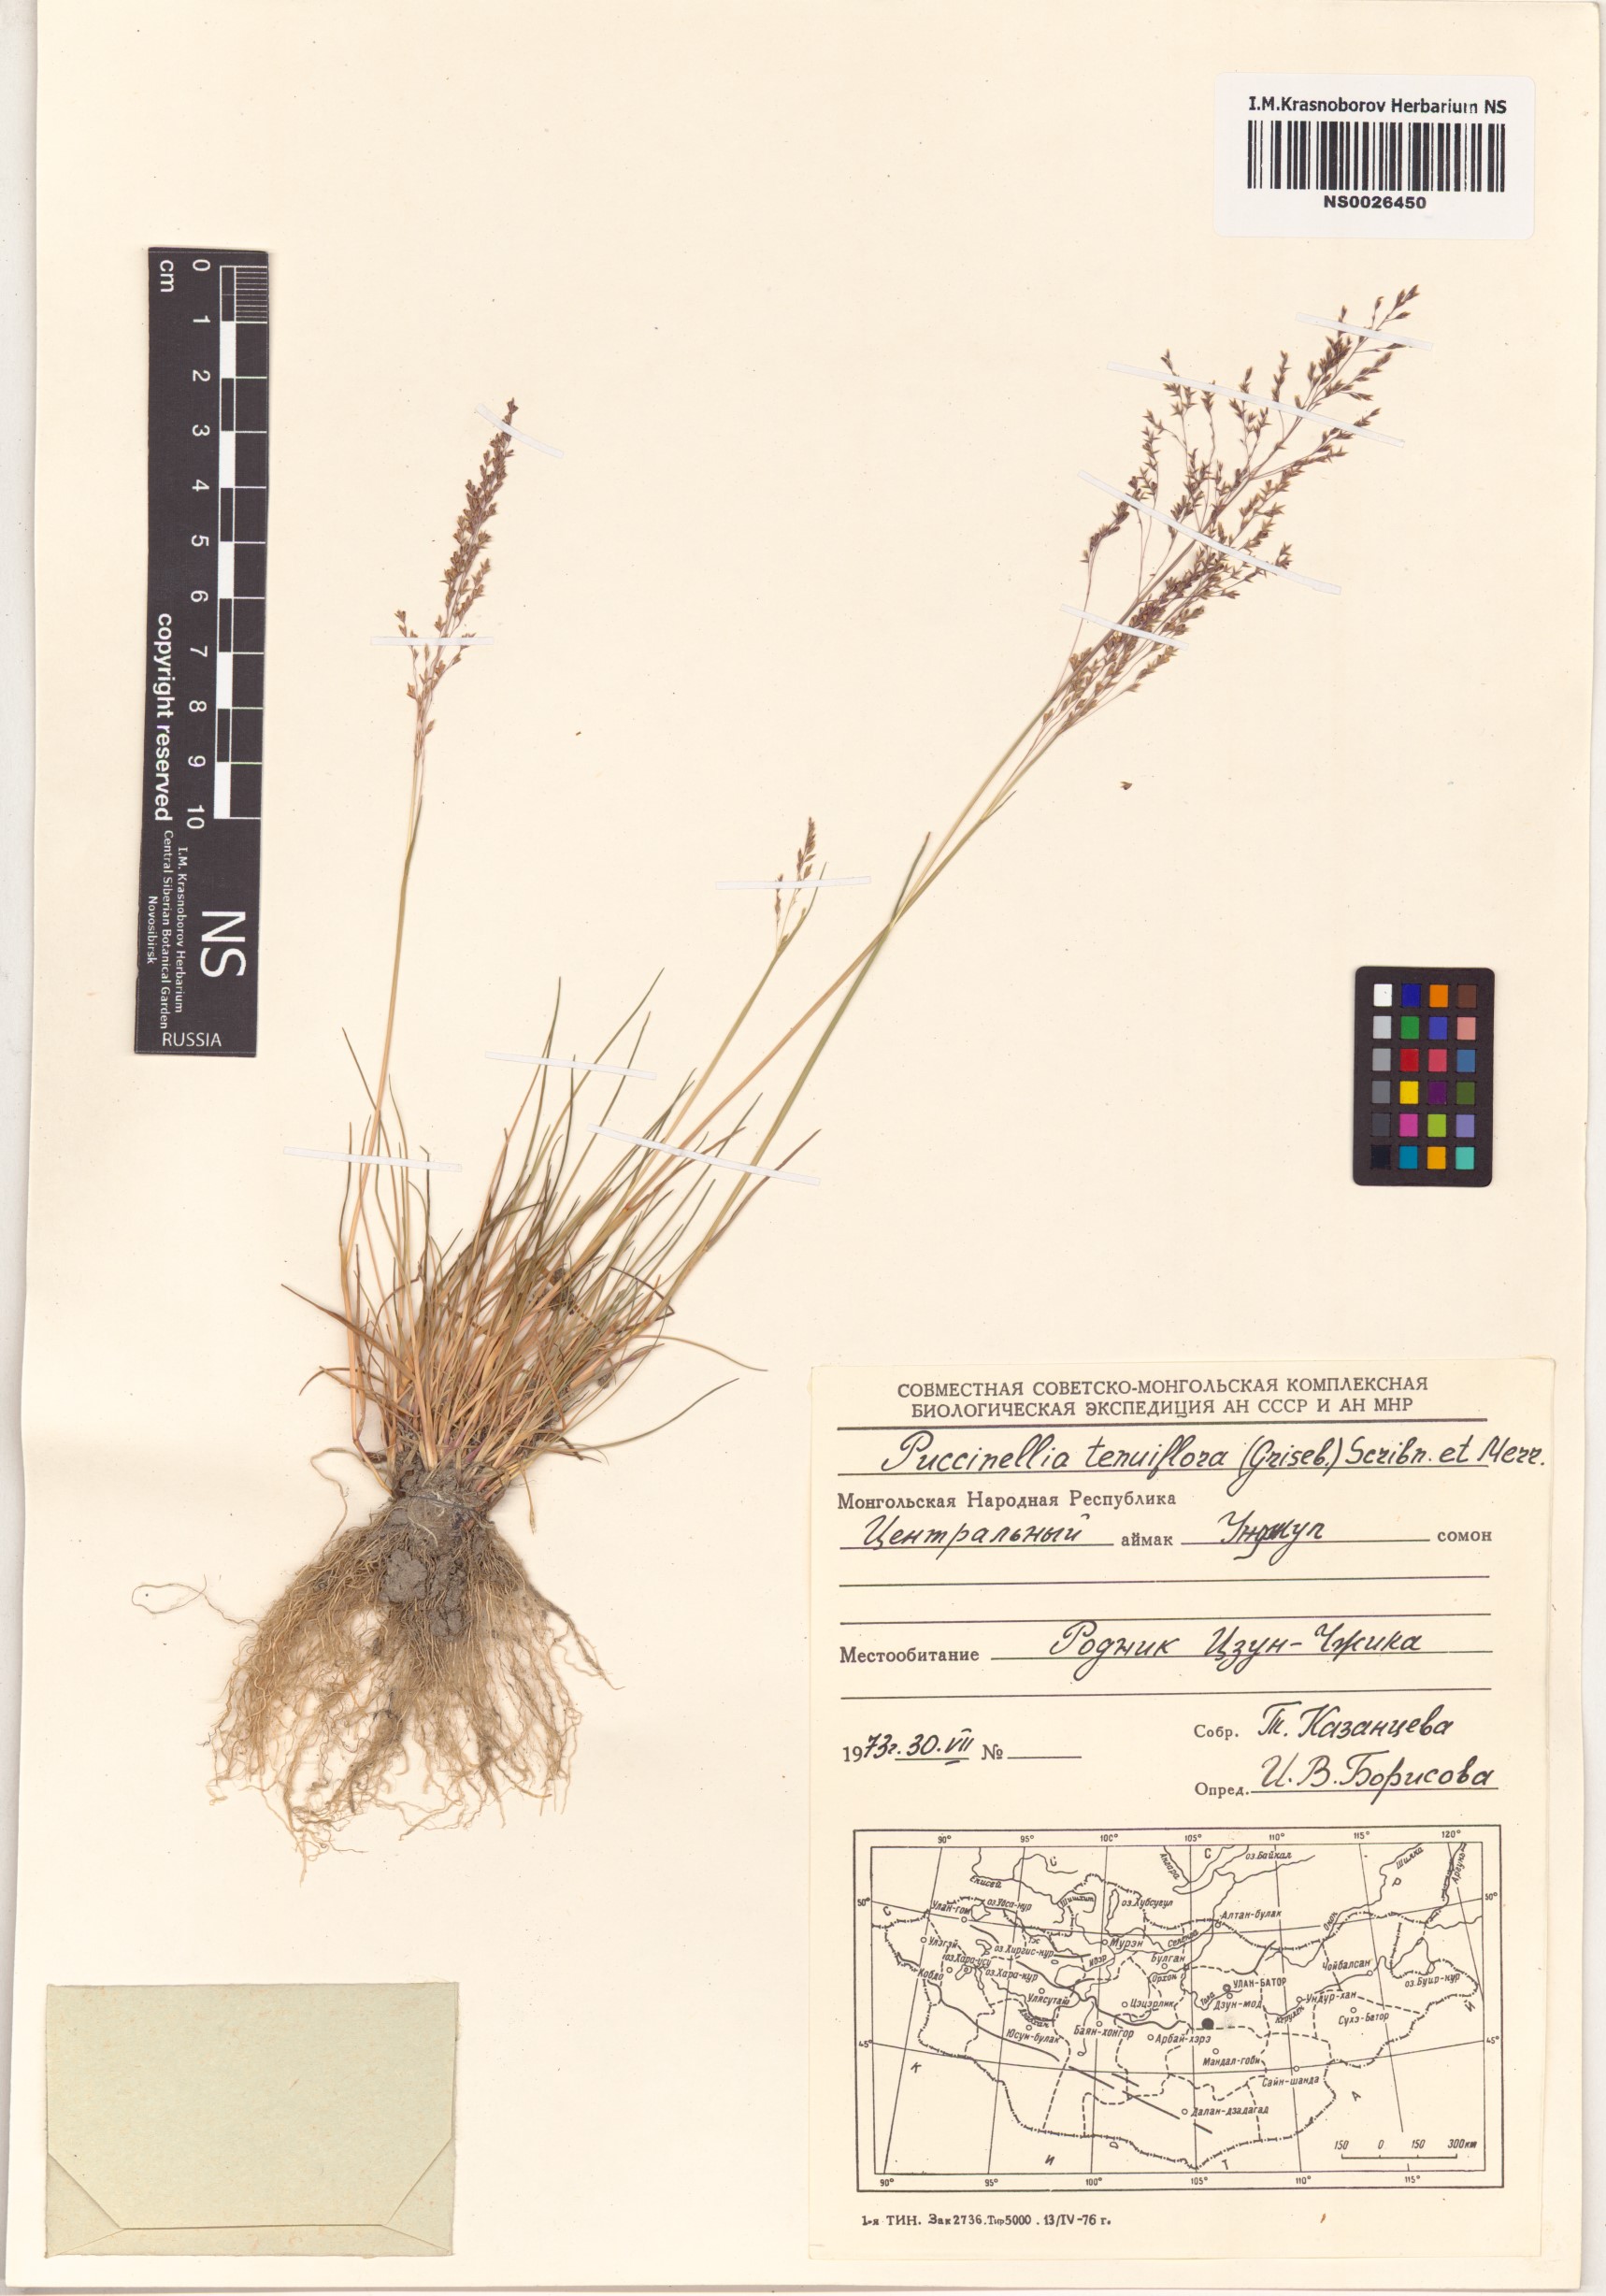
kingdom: Plantae
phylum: Tracheophyta
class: Liliopsida
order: Poales
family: Poaceae
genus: Puccinellia
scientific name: Puccinellia tenuiflora
